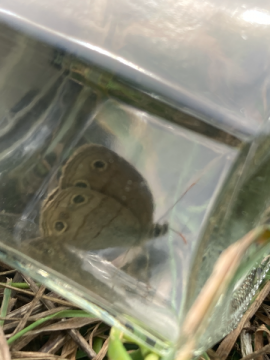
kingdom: Animalia
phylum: Arthropoda
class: Insecta
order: Lepidoptera
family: Nymphalidae
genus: Euptychia
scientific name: Euptychia cymela
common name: Little Wood Satyr
